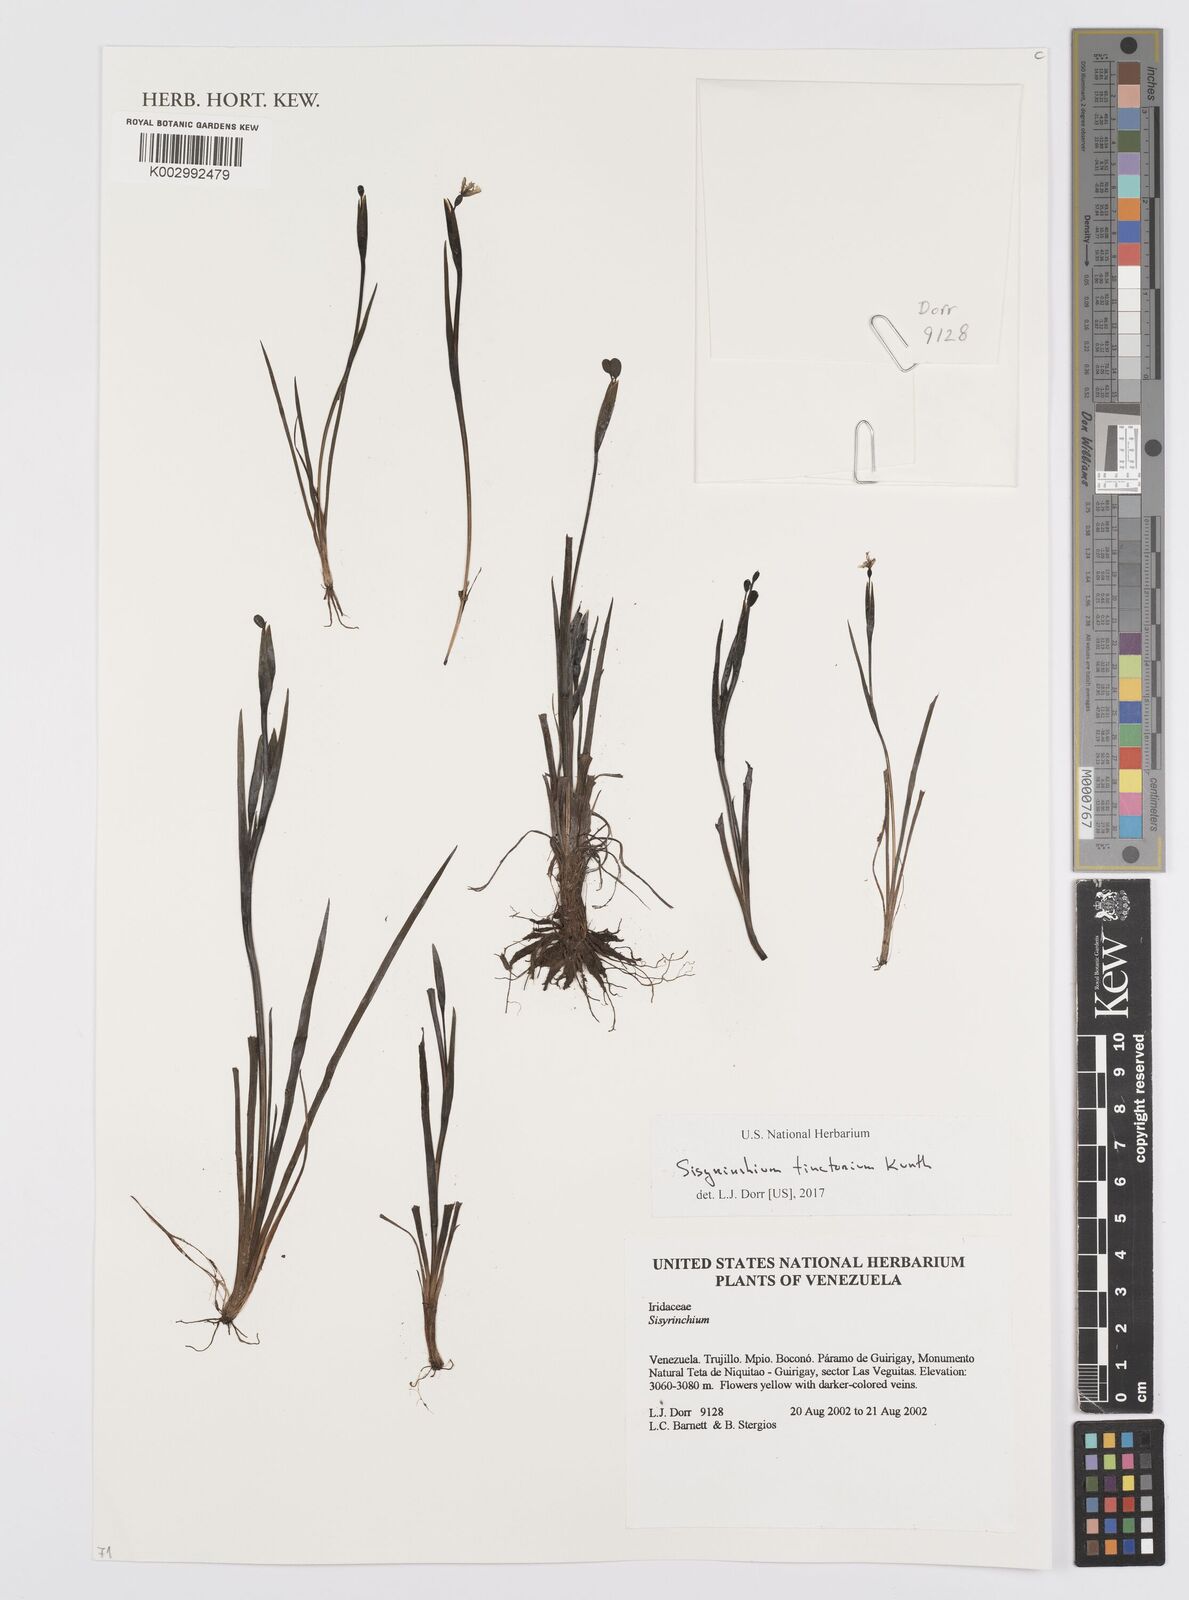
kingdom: Plantae
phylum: Tracheophyta
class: Liliopsida
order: Asparagales
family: Iridaceae
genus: Sisyrinchium
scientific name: Sisyrinchium tinctorium
